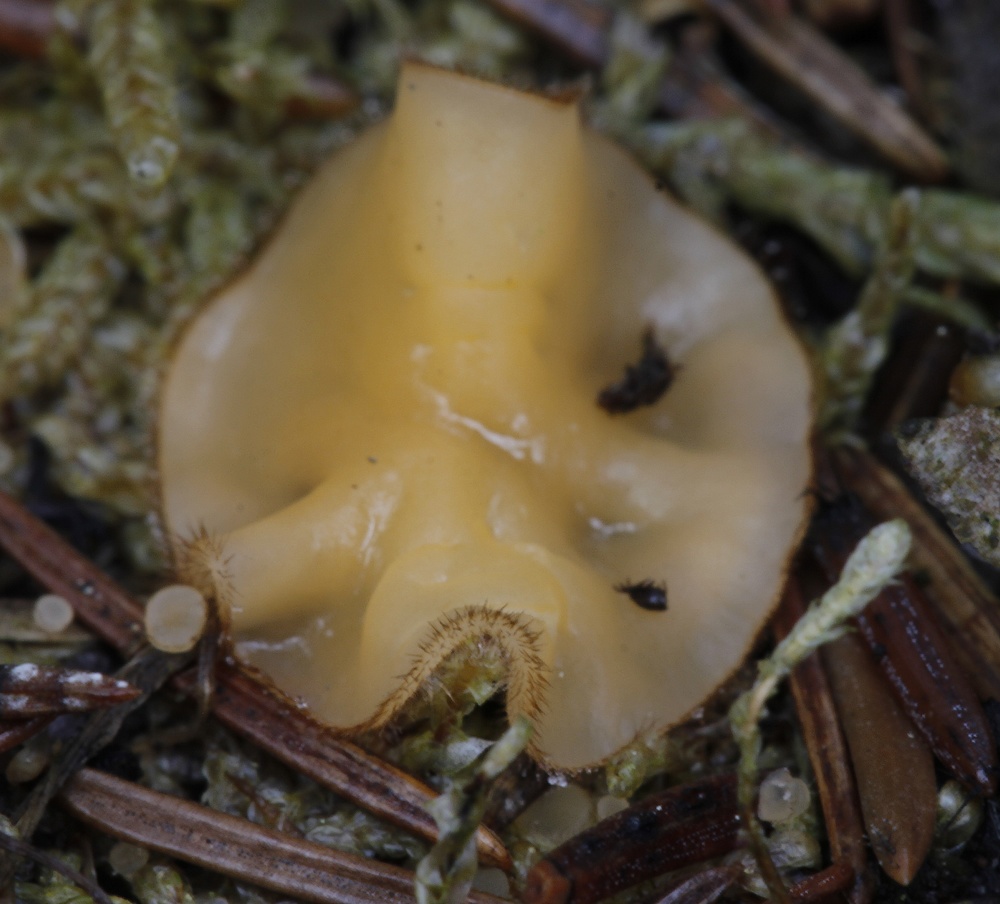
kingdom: Fungi
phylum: Ascomycota
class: Pezizomycetes
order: Pezizales
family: Pyronemataceae
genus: Spooneromyces
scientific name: Spooneromyces velenovskyi
